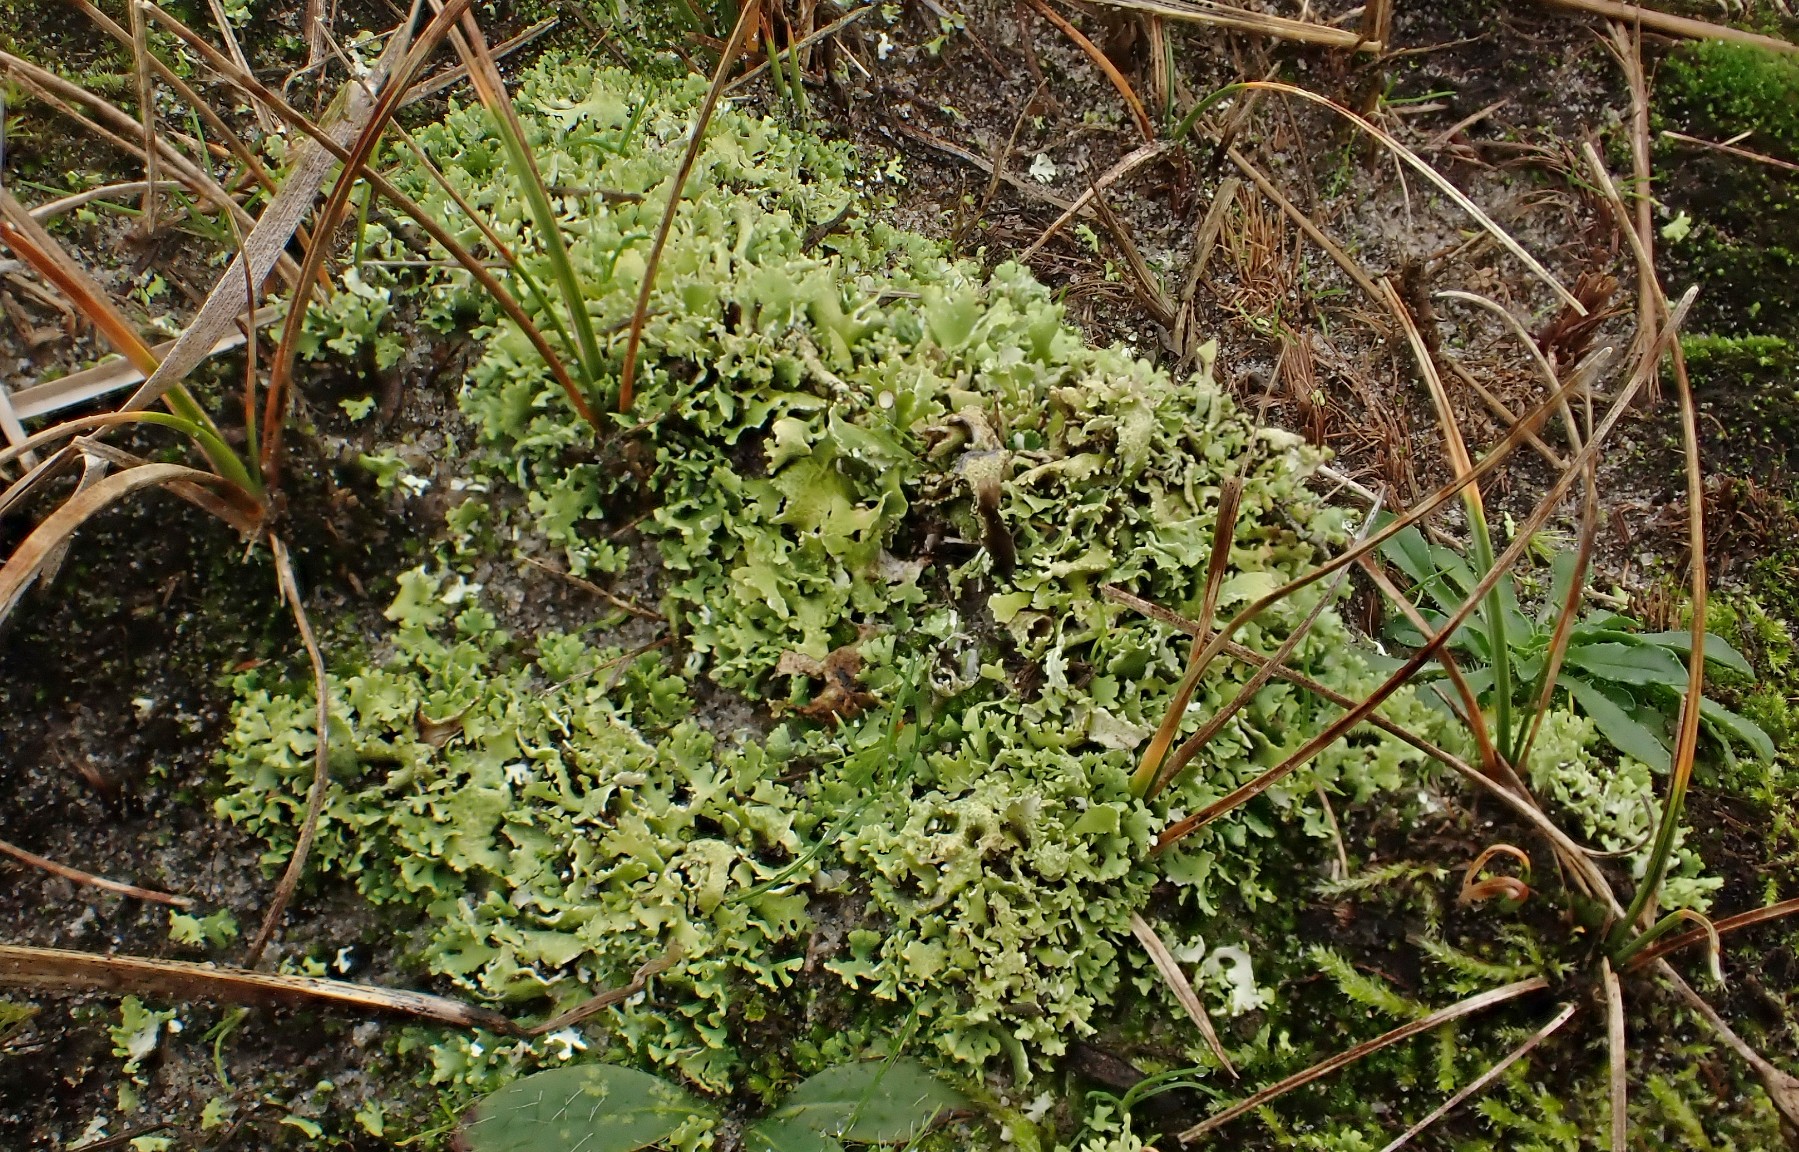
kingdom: Fungi
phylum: Ascomycota
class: Lecanoromycetes
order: Lecanorales
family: Cladoniaceae
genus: Cladonia
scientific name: Cladonia foliacea
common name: fliget bægerlav
